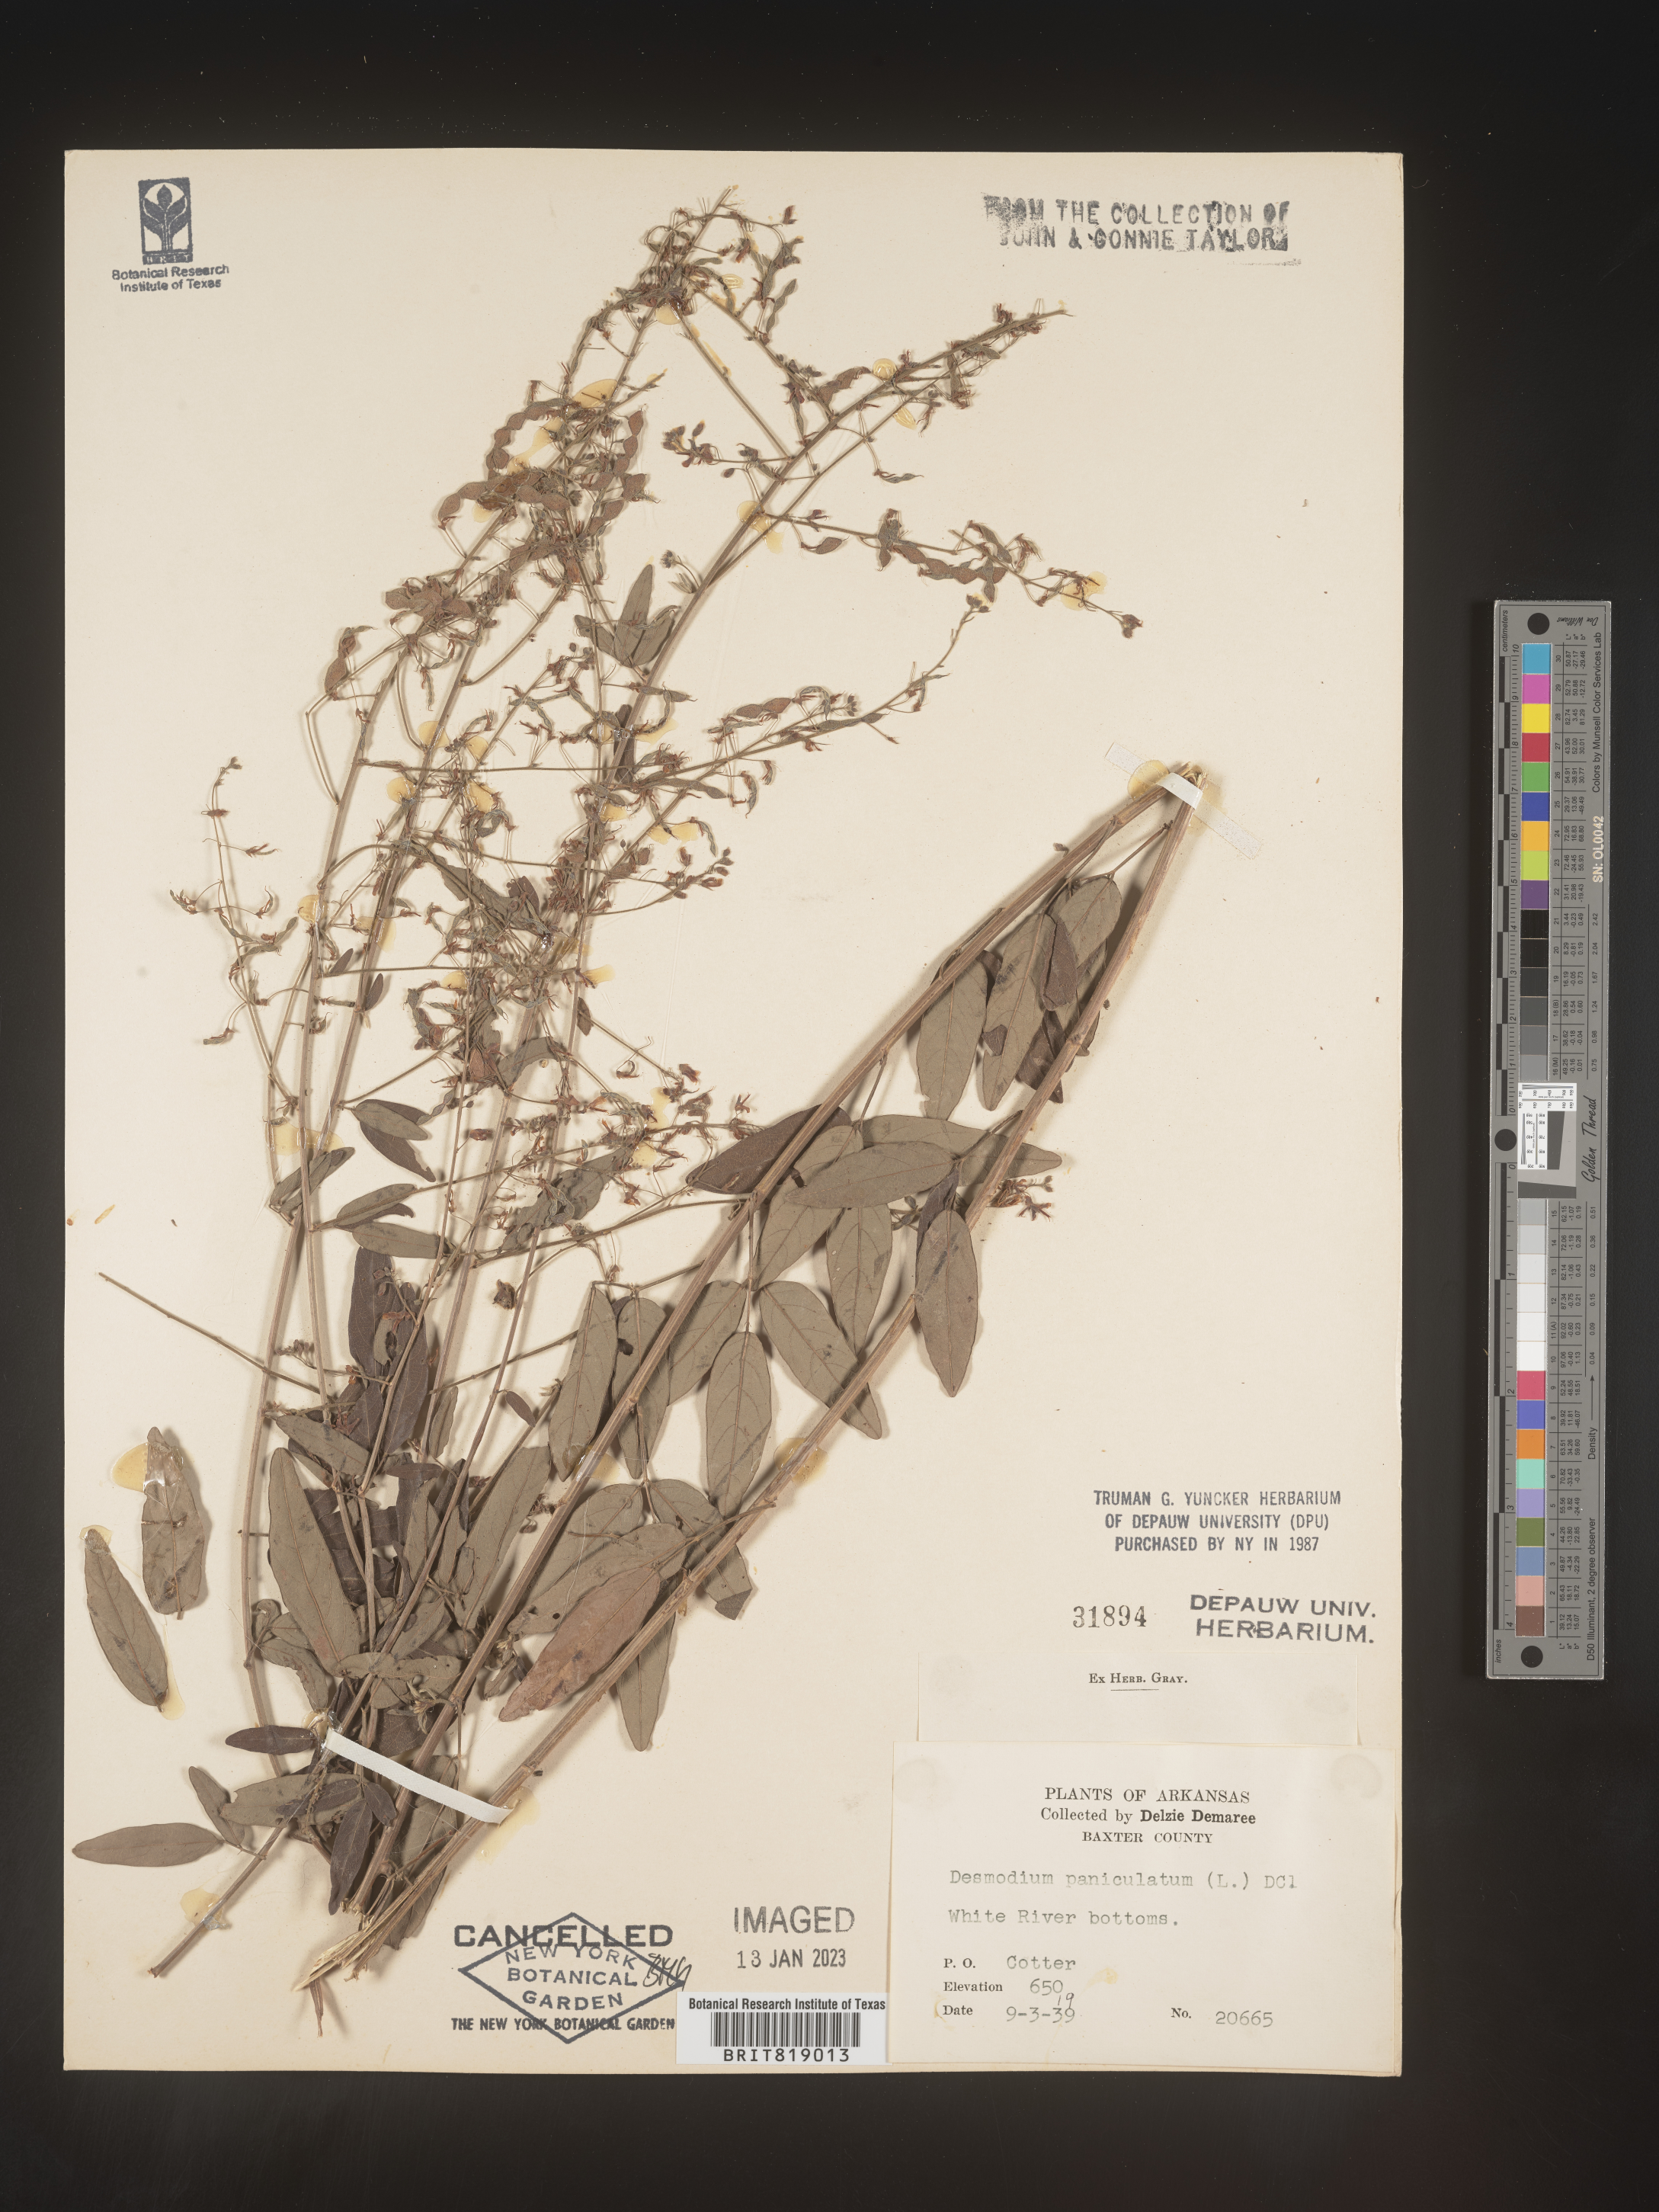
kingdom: Plantae
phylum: Tracheophyta
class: Magnoliopsida
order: Fabales
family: Fabaceae
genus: Desmodium
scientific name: Desmodium paniculatum
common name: Panicled tick-clover
